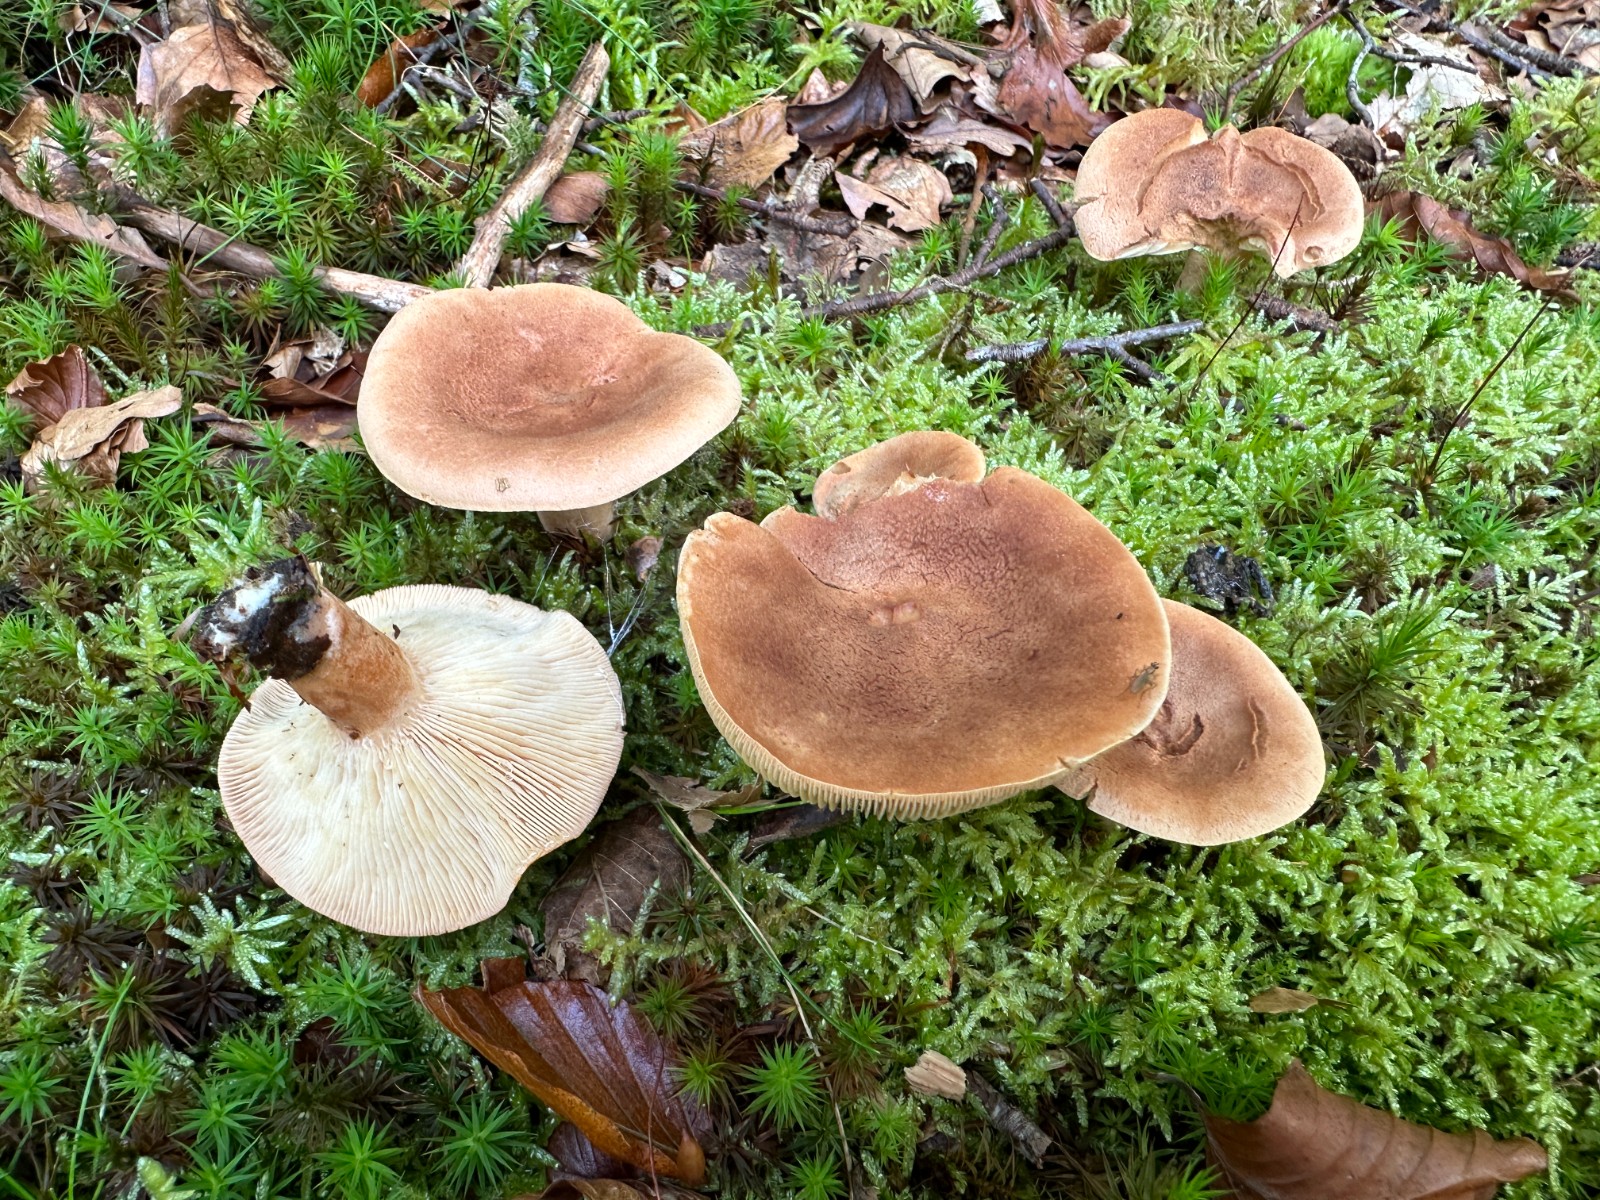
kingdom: Fungi
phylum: Basidiomycota
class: Agaricomycetes
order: Russulales
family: Russulaceae
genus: Lactarius
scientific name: Lactarius subdulcis
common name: sødlig mælkehat
